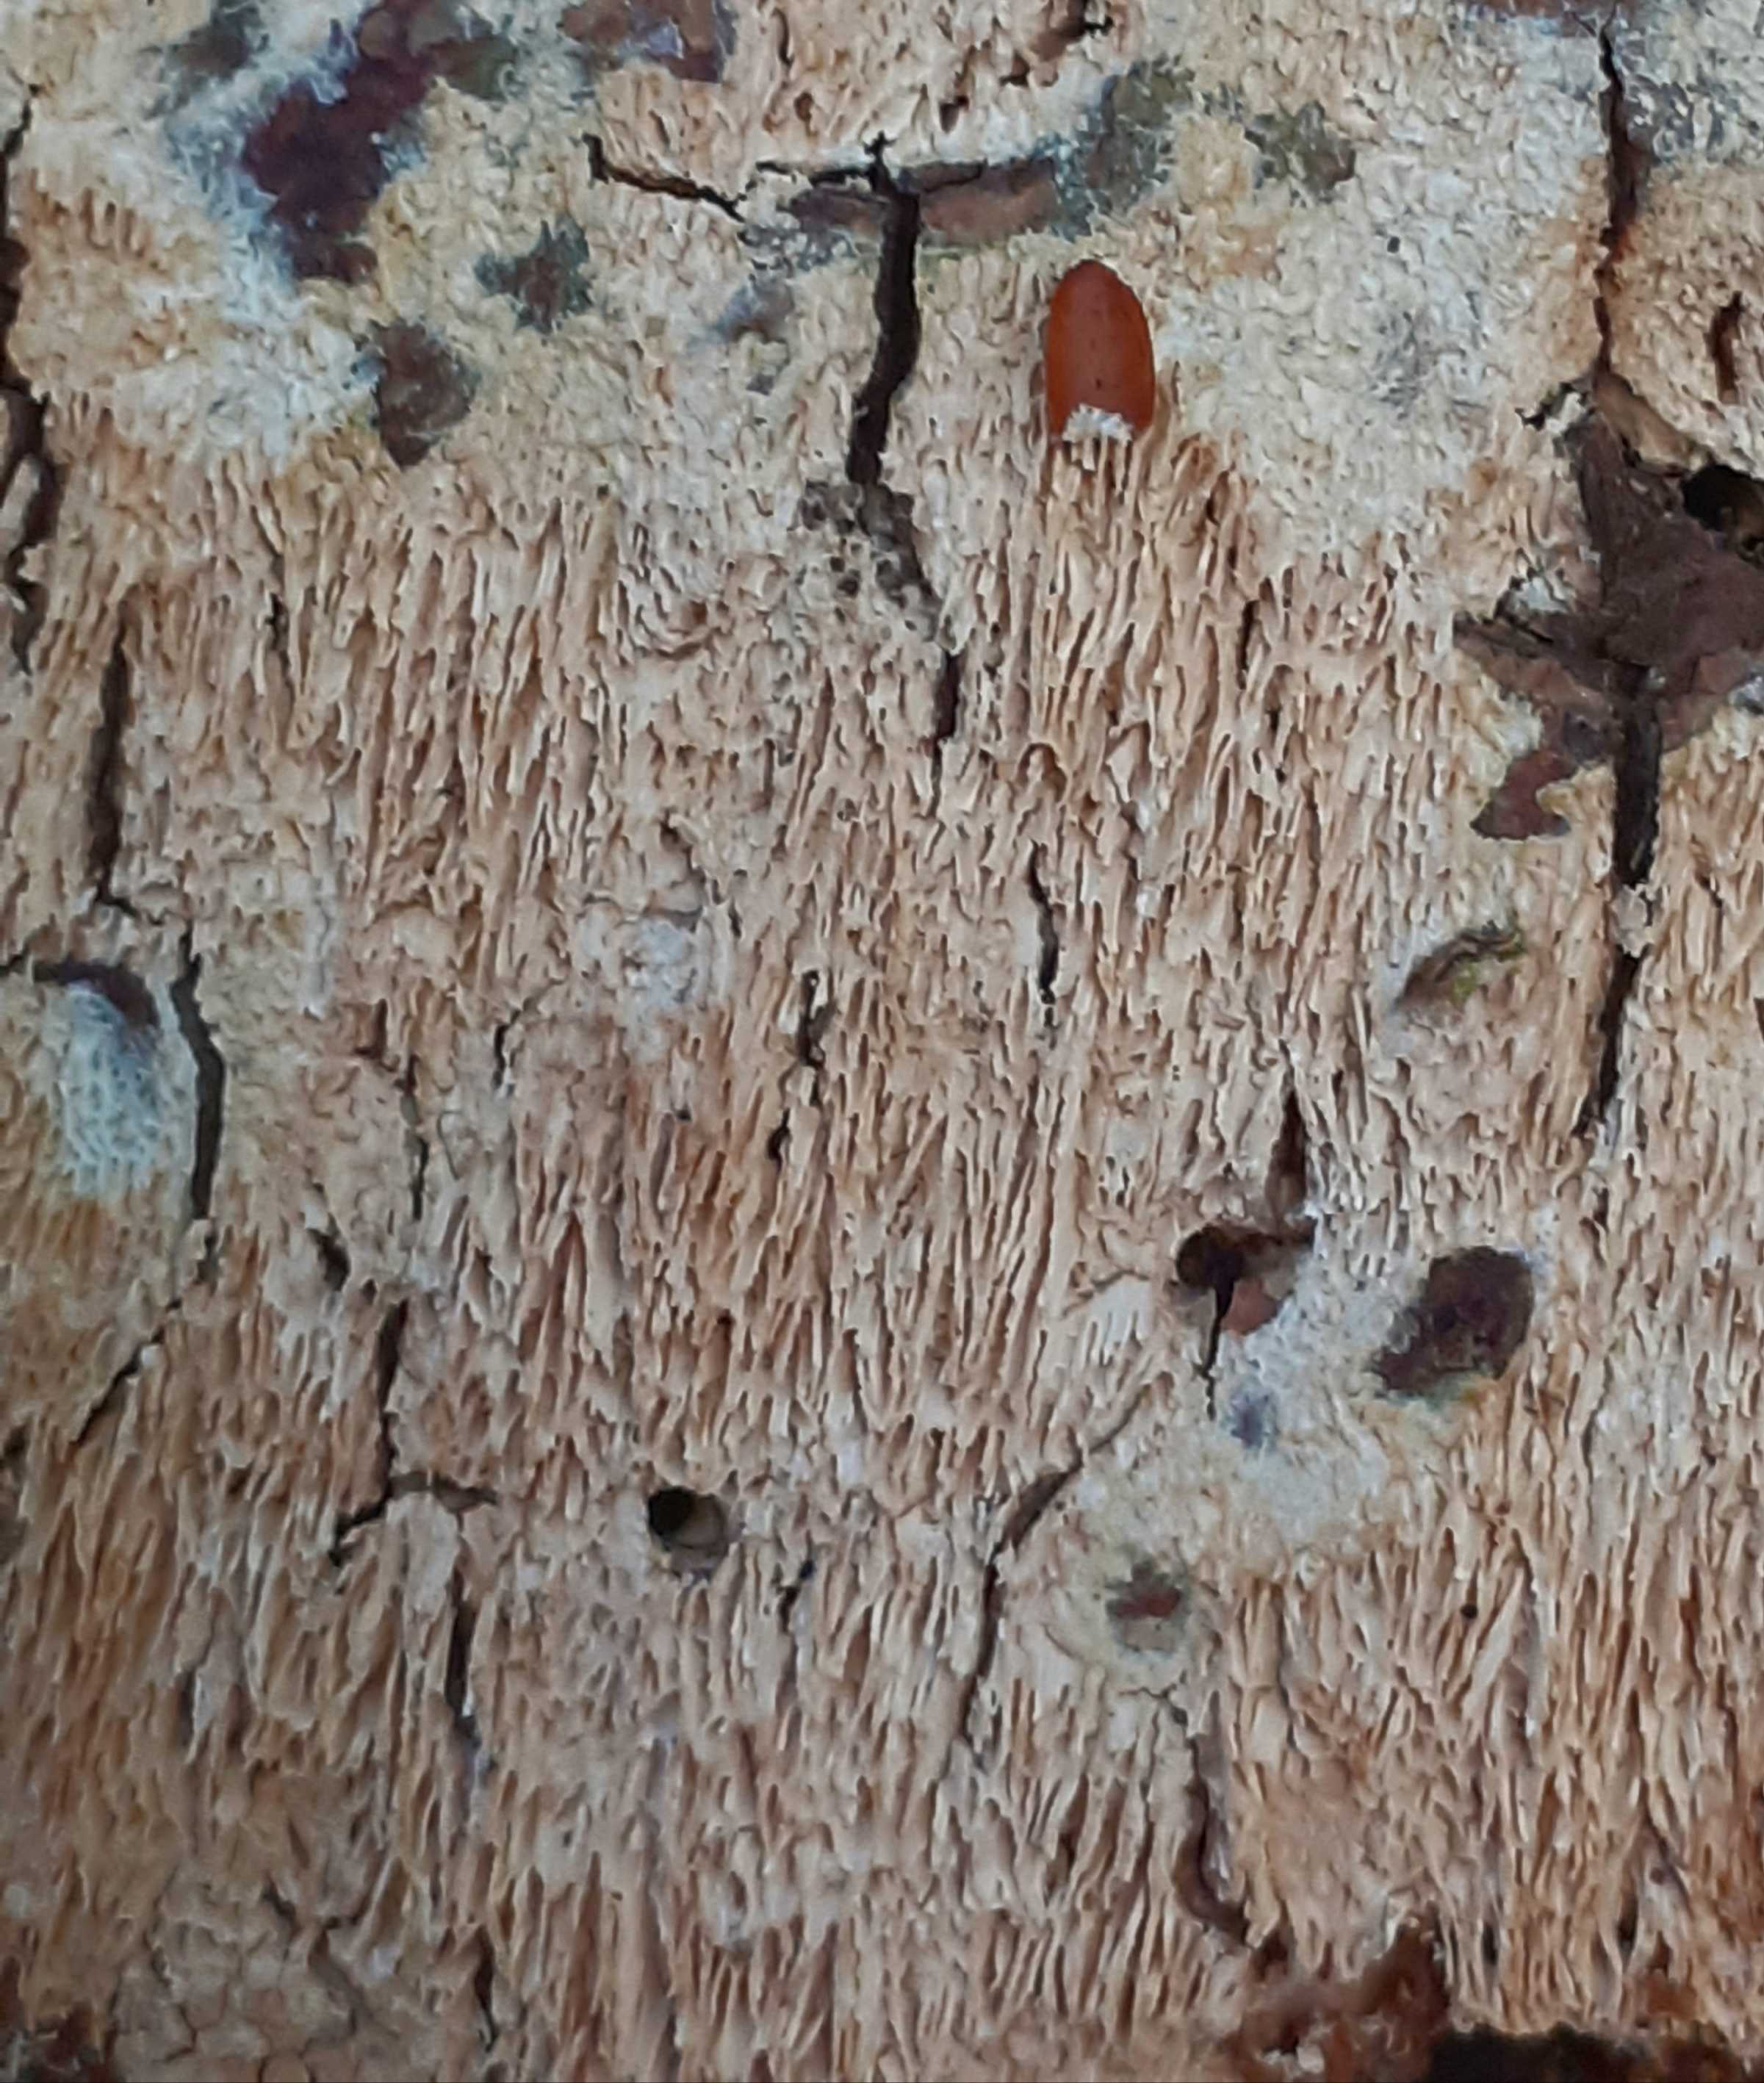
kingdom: Fungi
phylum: Basidiomycota
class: Agaricomycetes
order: Hymenochaetales
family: Schizoporaceae
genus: Schizopora
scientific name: Schizopora paradoxa
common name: hvid tandsvamp
